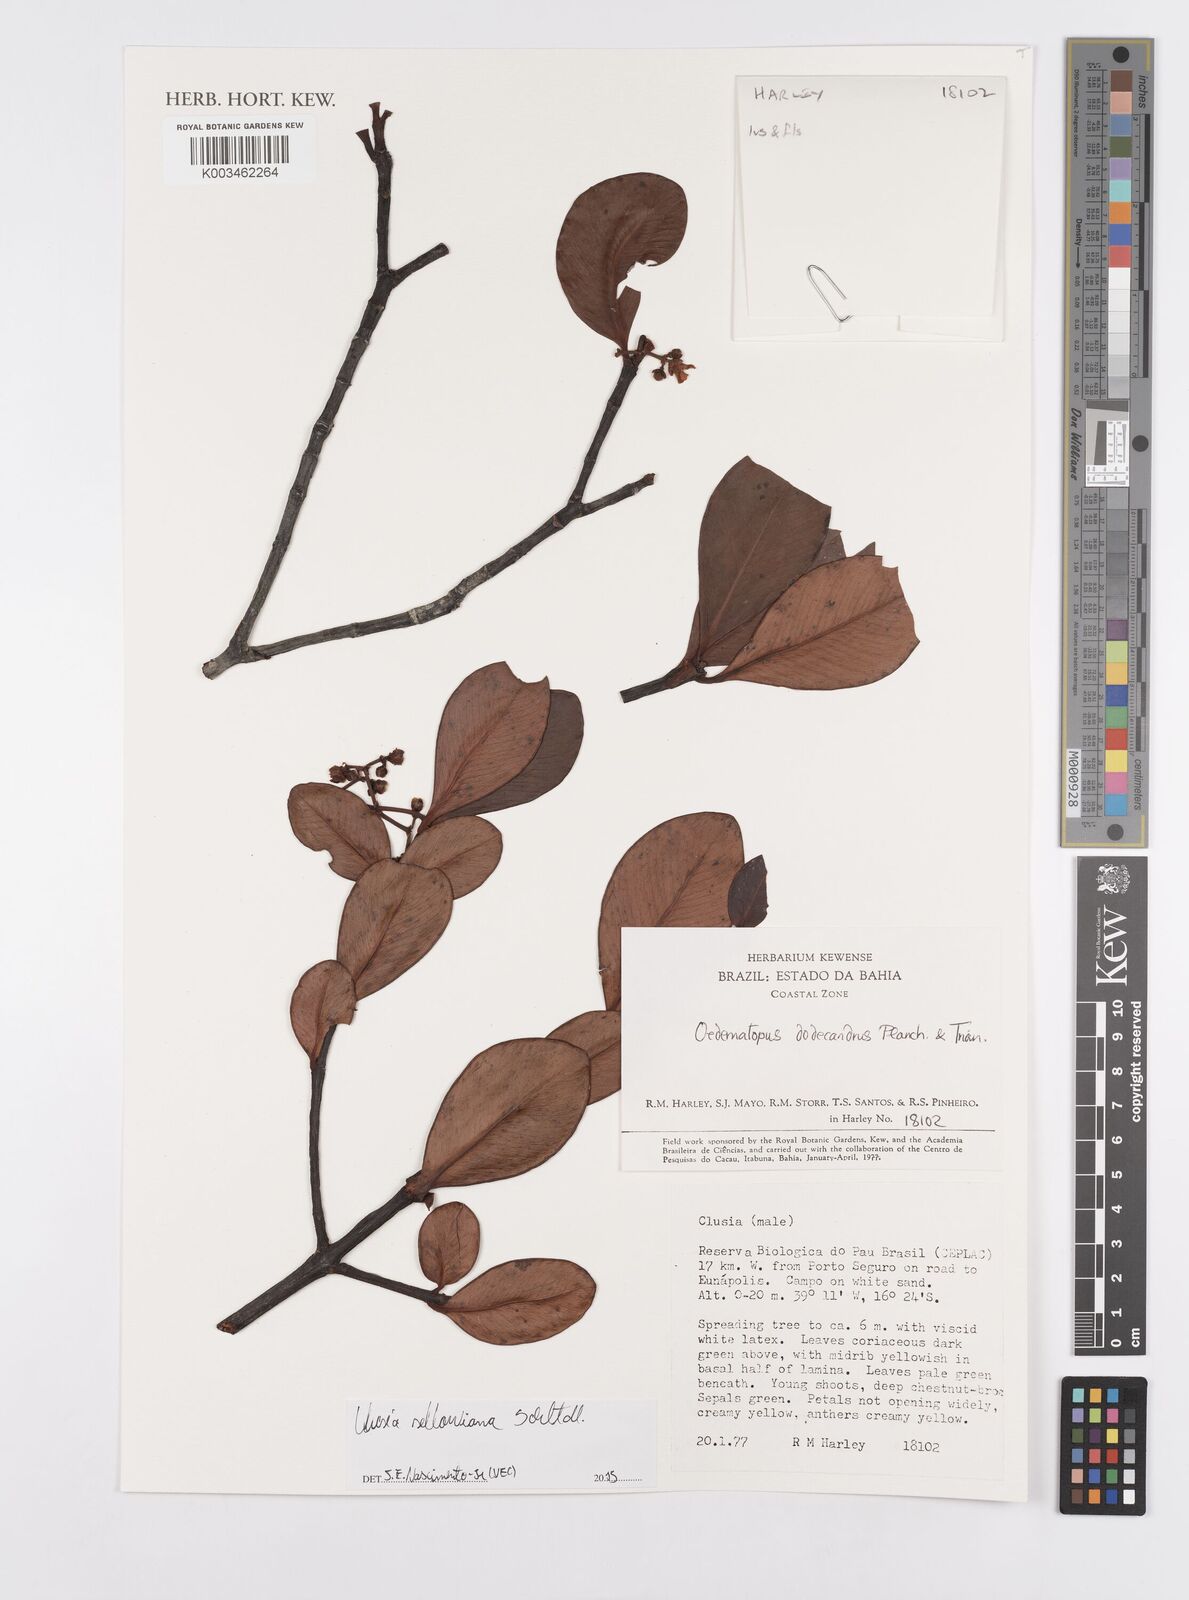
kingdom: Plantae
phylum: Tracheophyta
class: Magnoliopsida
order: Malpighiales
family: Clusiaceae
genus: Clusia
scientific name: Clusia sellowiana
